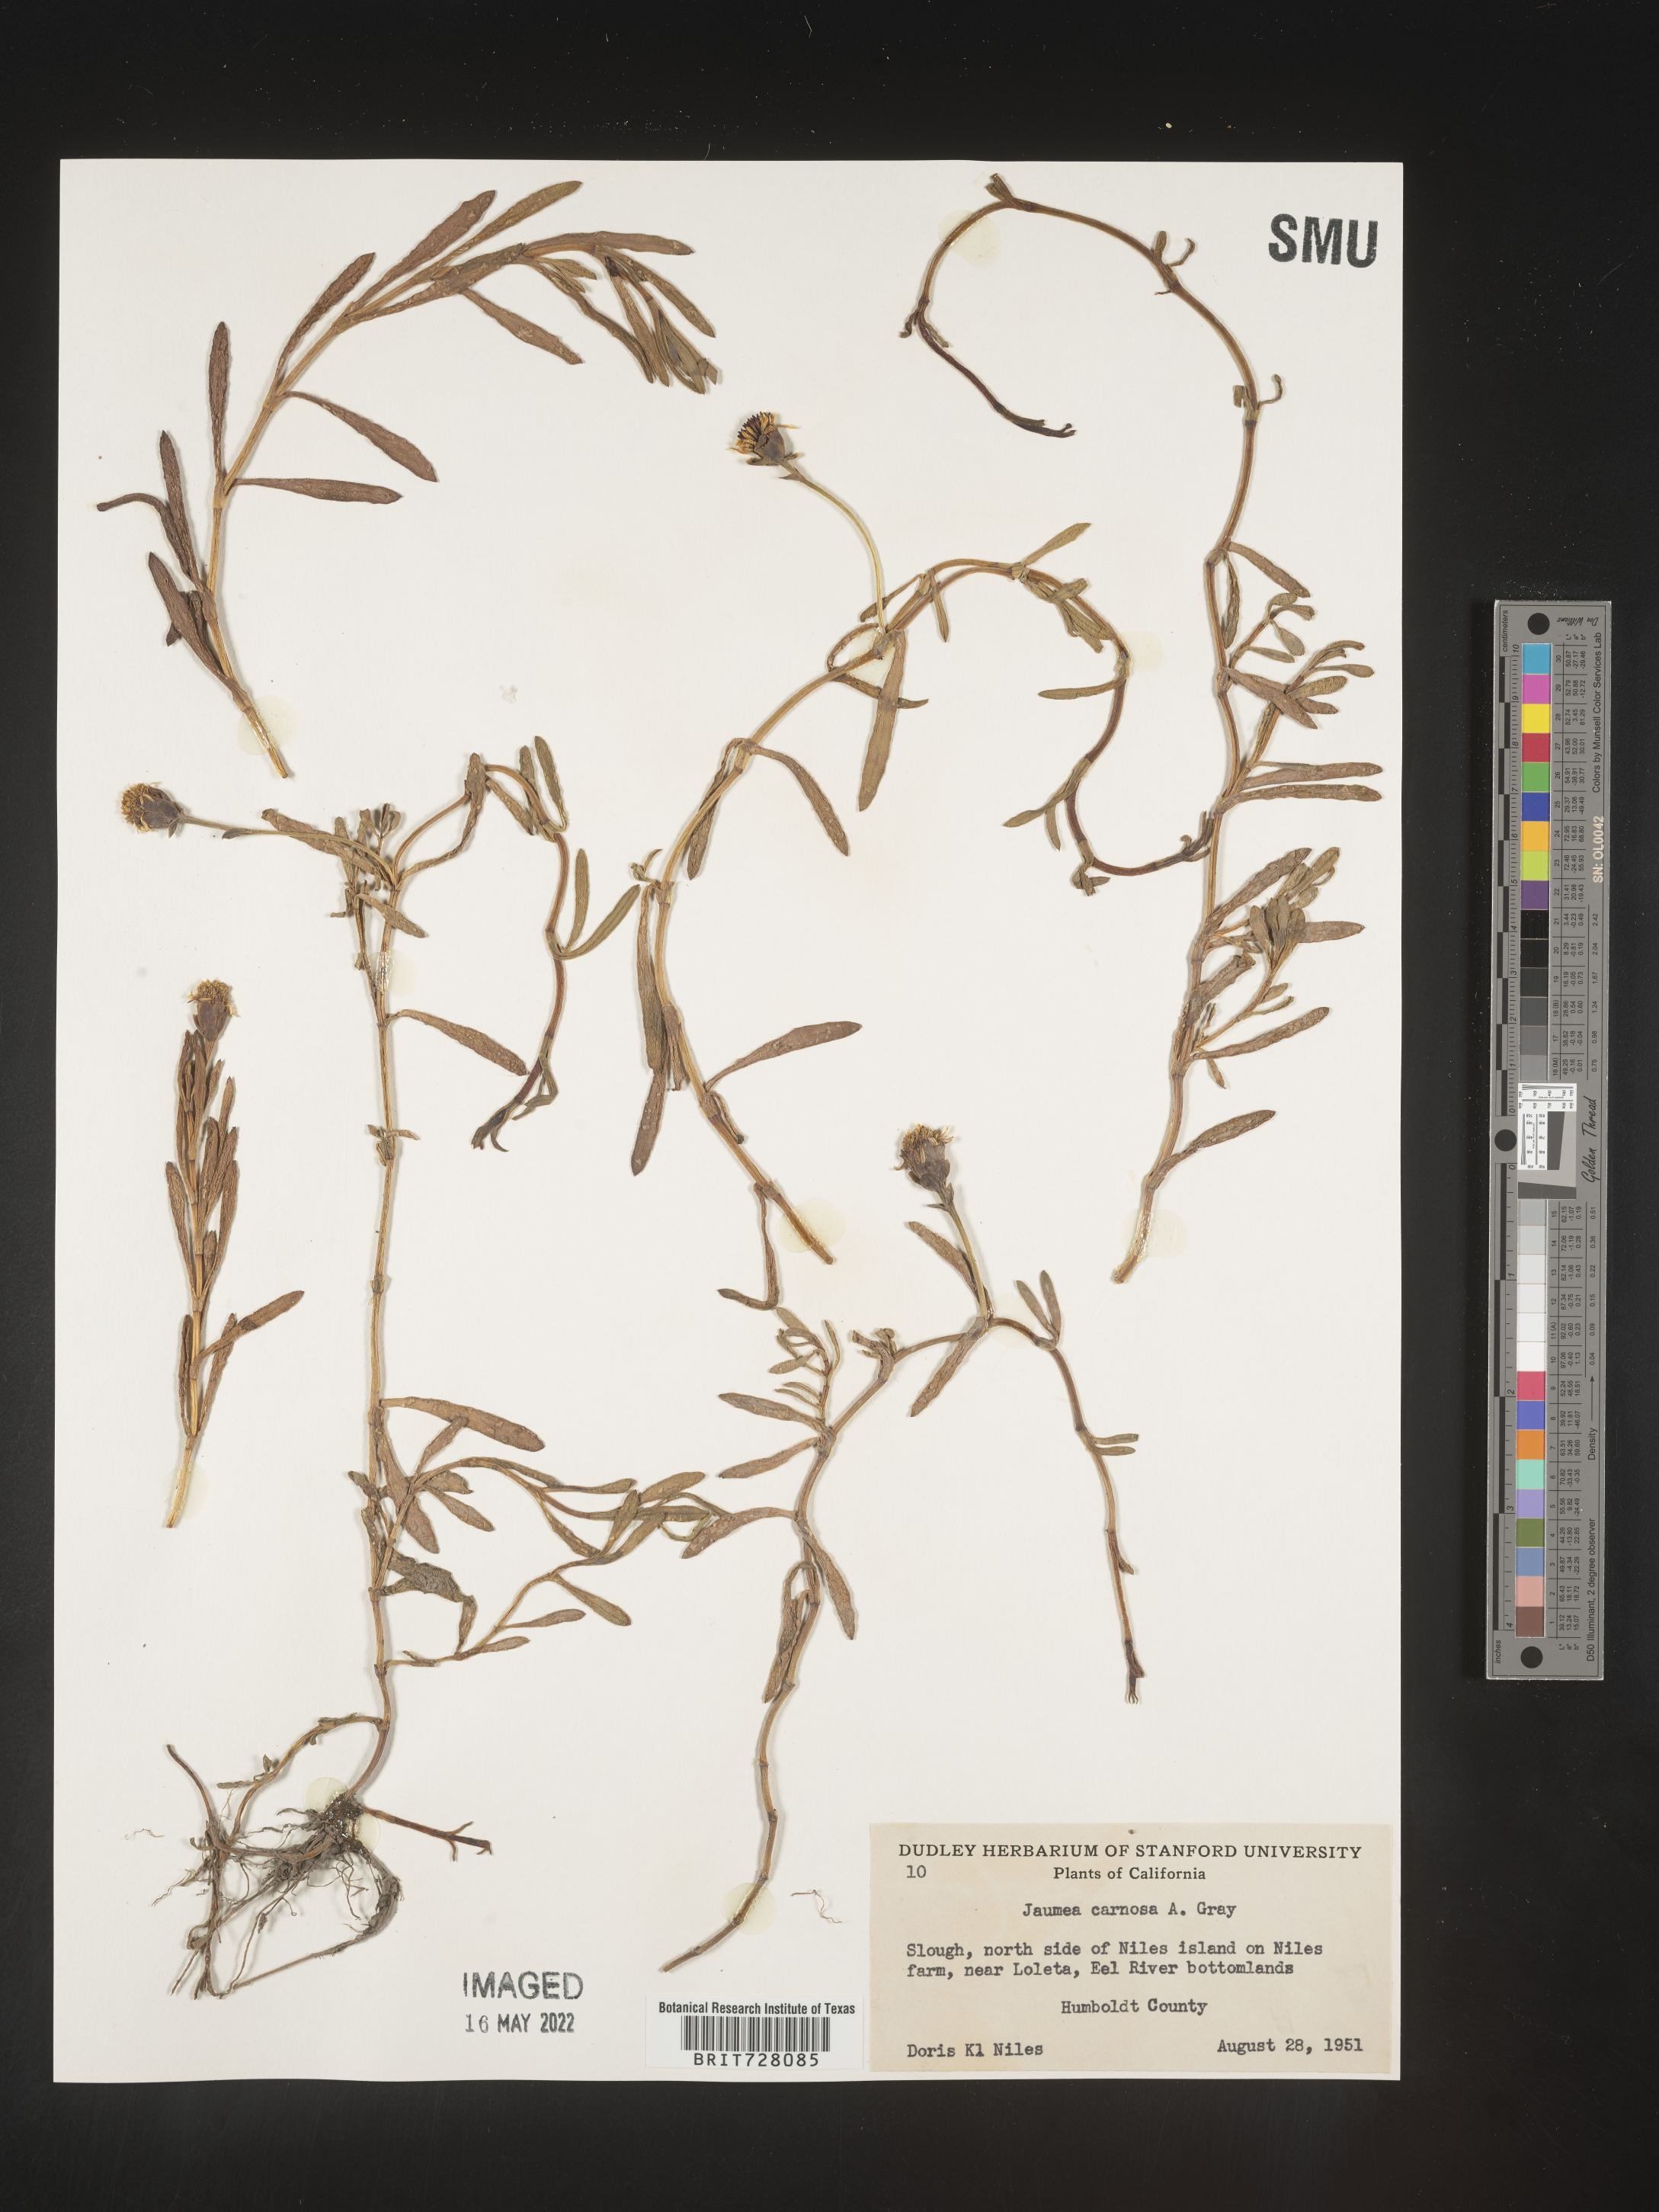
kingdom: Plantae
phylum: Tracheophyta
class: Magnoliopsida
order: Asterales
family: Asteraceae
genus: Jaumea
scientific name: Jaumea
